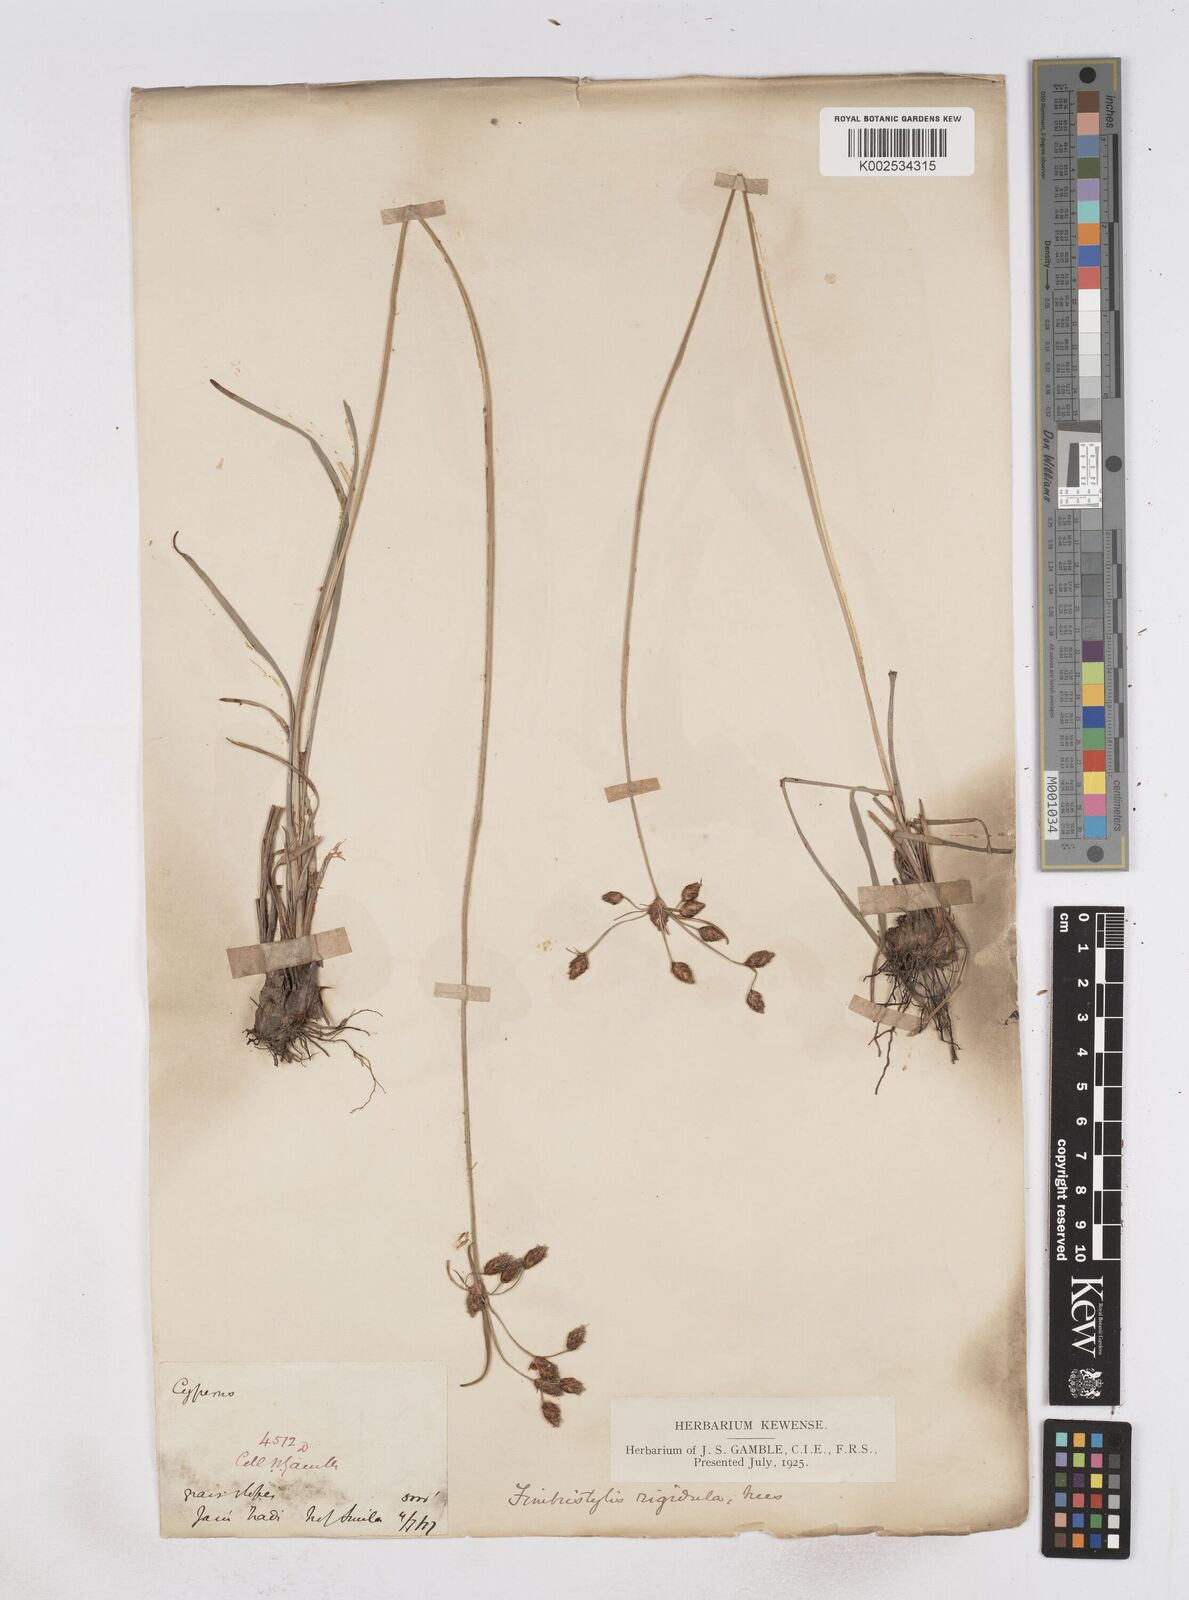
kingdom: Plantae
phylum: Tracheophyta
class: Liliopsida
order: Poales
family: Cyperaceae
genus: Fimbristylis
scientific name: Fimbristylis rigidula
